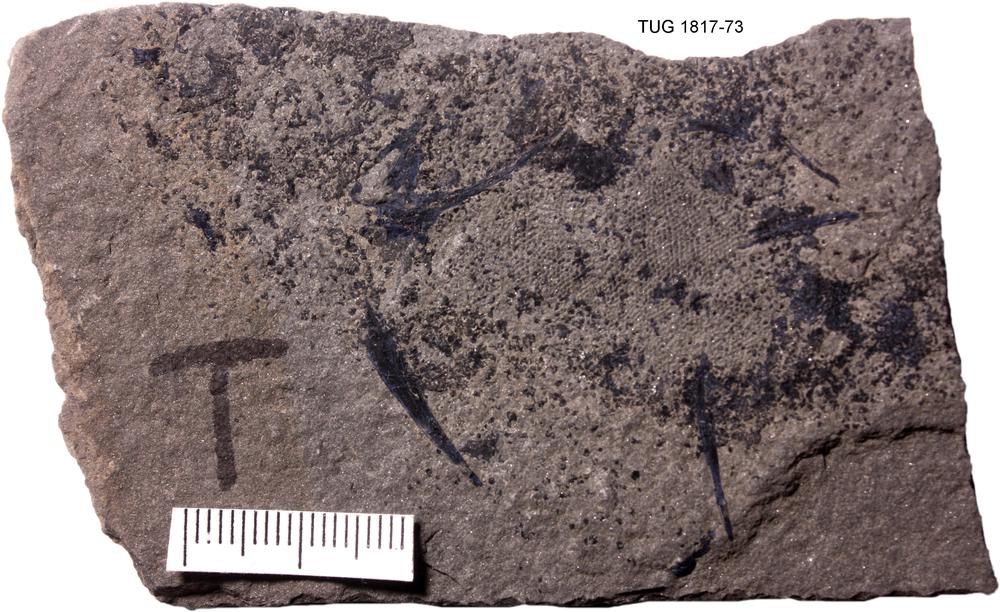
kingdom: Animalia
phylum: Chordata
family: Diplacanthidae
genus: Diplacanthus
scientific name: Diplacanthus crassisimus
